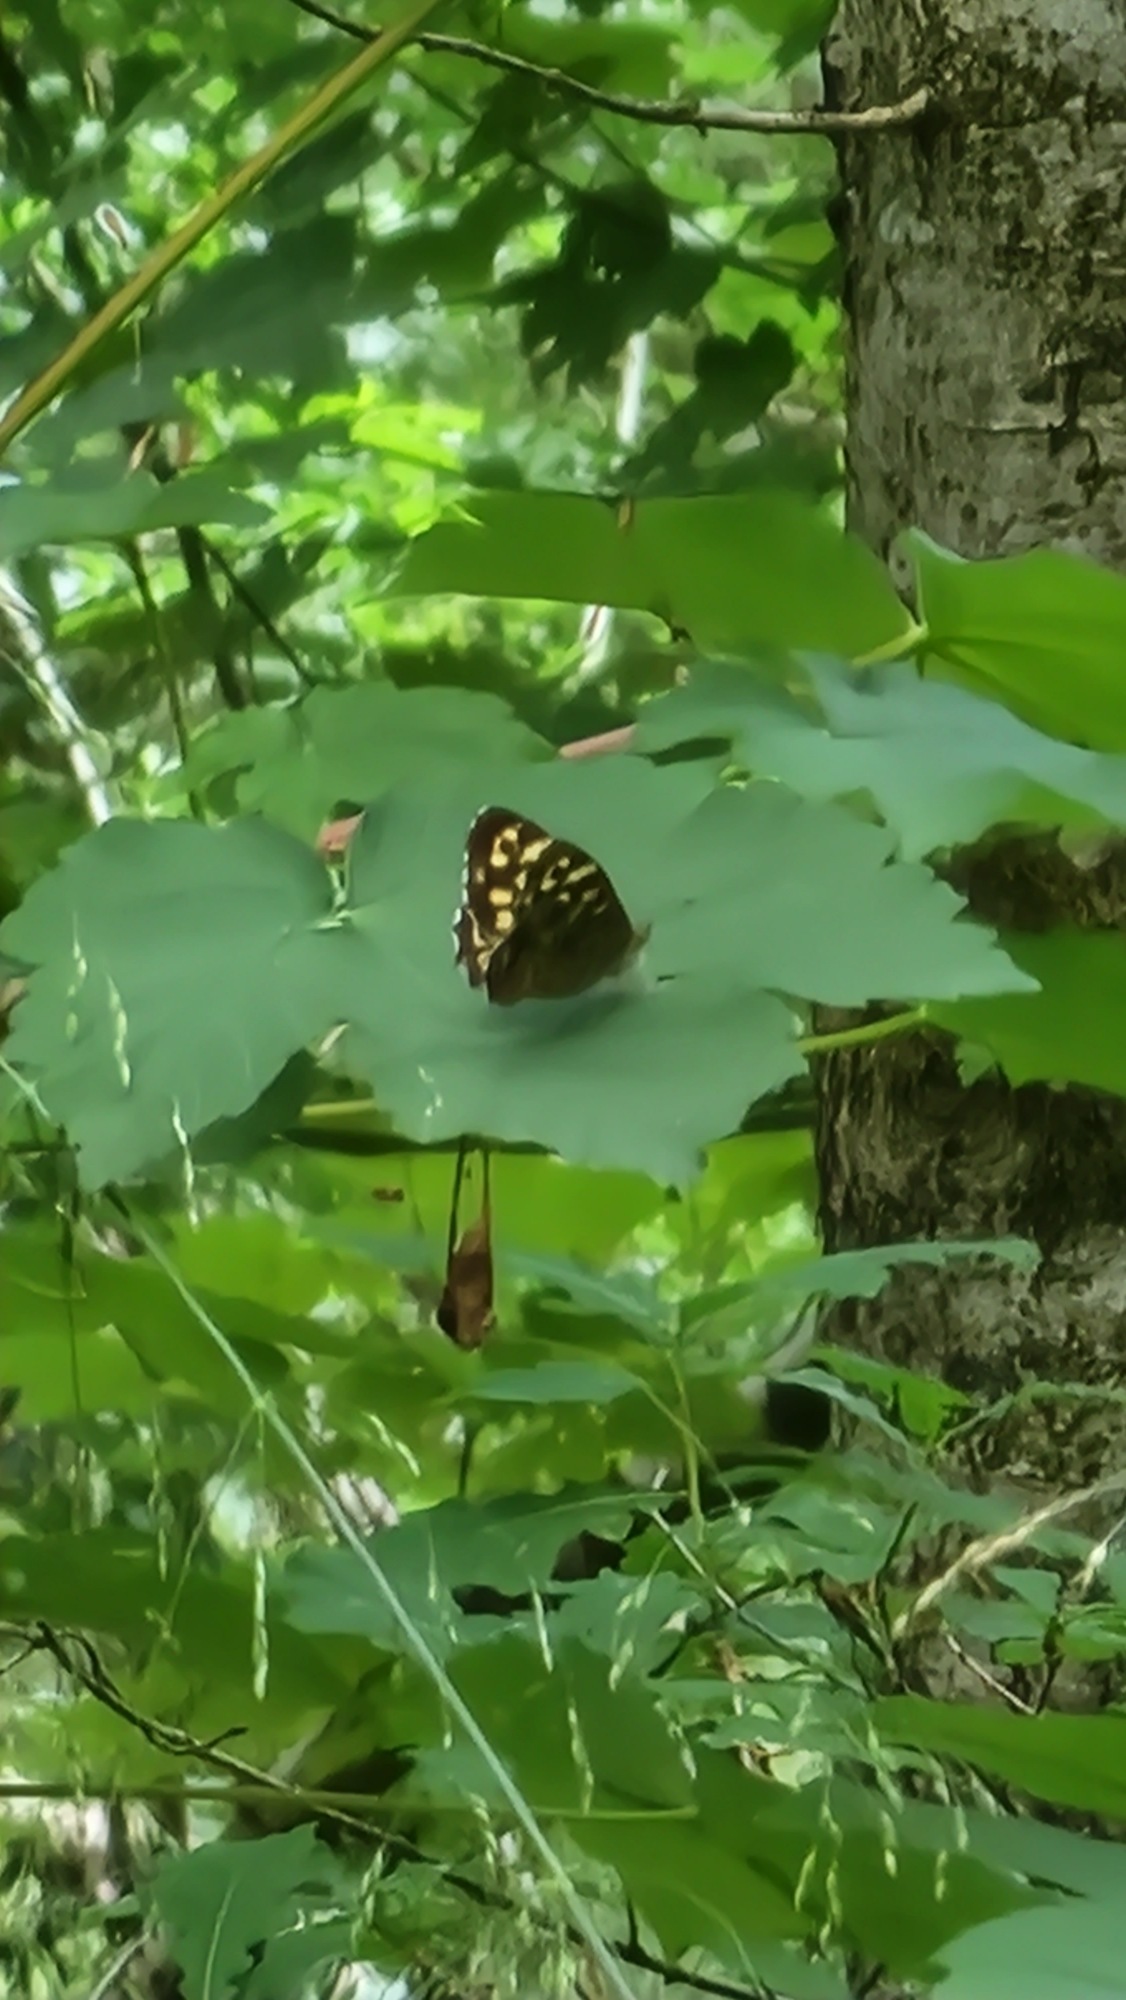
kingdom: Animalia
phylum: Arthropoda
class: Insecta
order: Lepidoptera
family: Nymphalidae
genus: Pararge
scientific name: Pararge aegeria
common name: Skovrandøje
